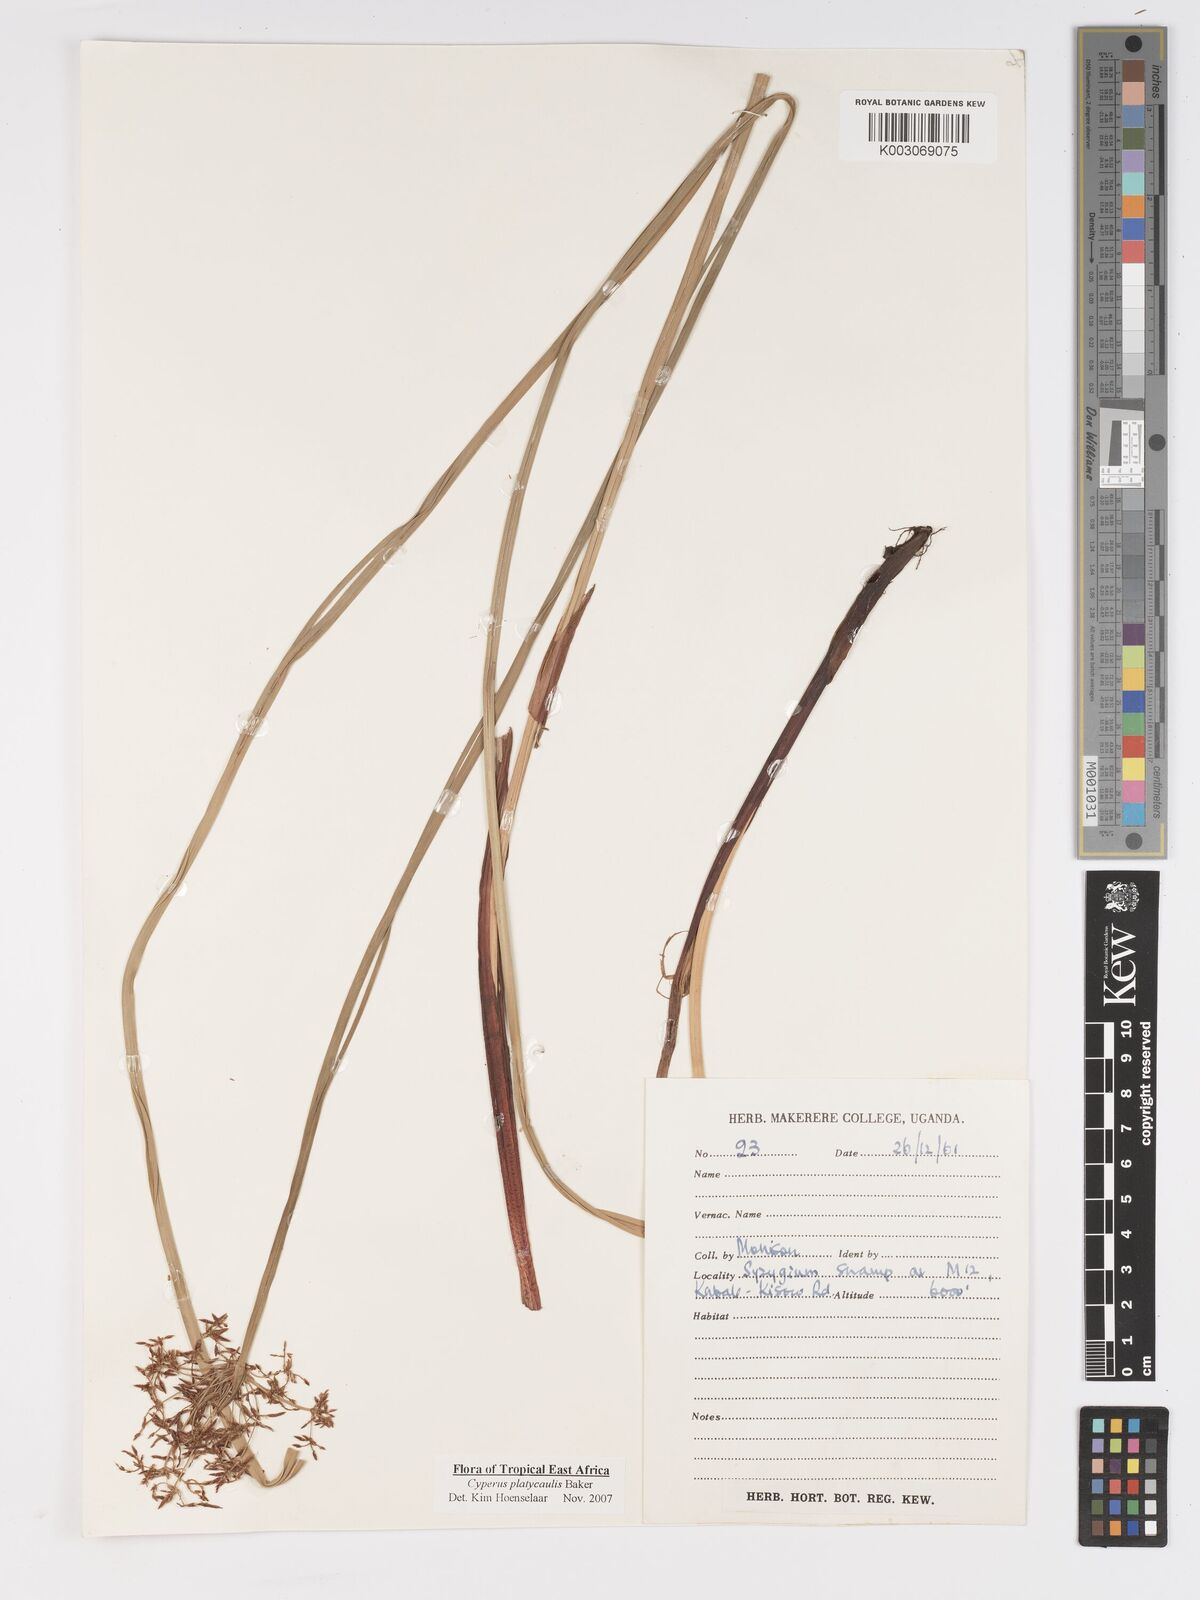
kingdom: Plantae
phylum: Tracheophyta
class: Liliopsida
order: Poales
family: Cyperaceae
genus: Cyperus
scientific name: Cyperus platycaulis
